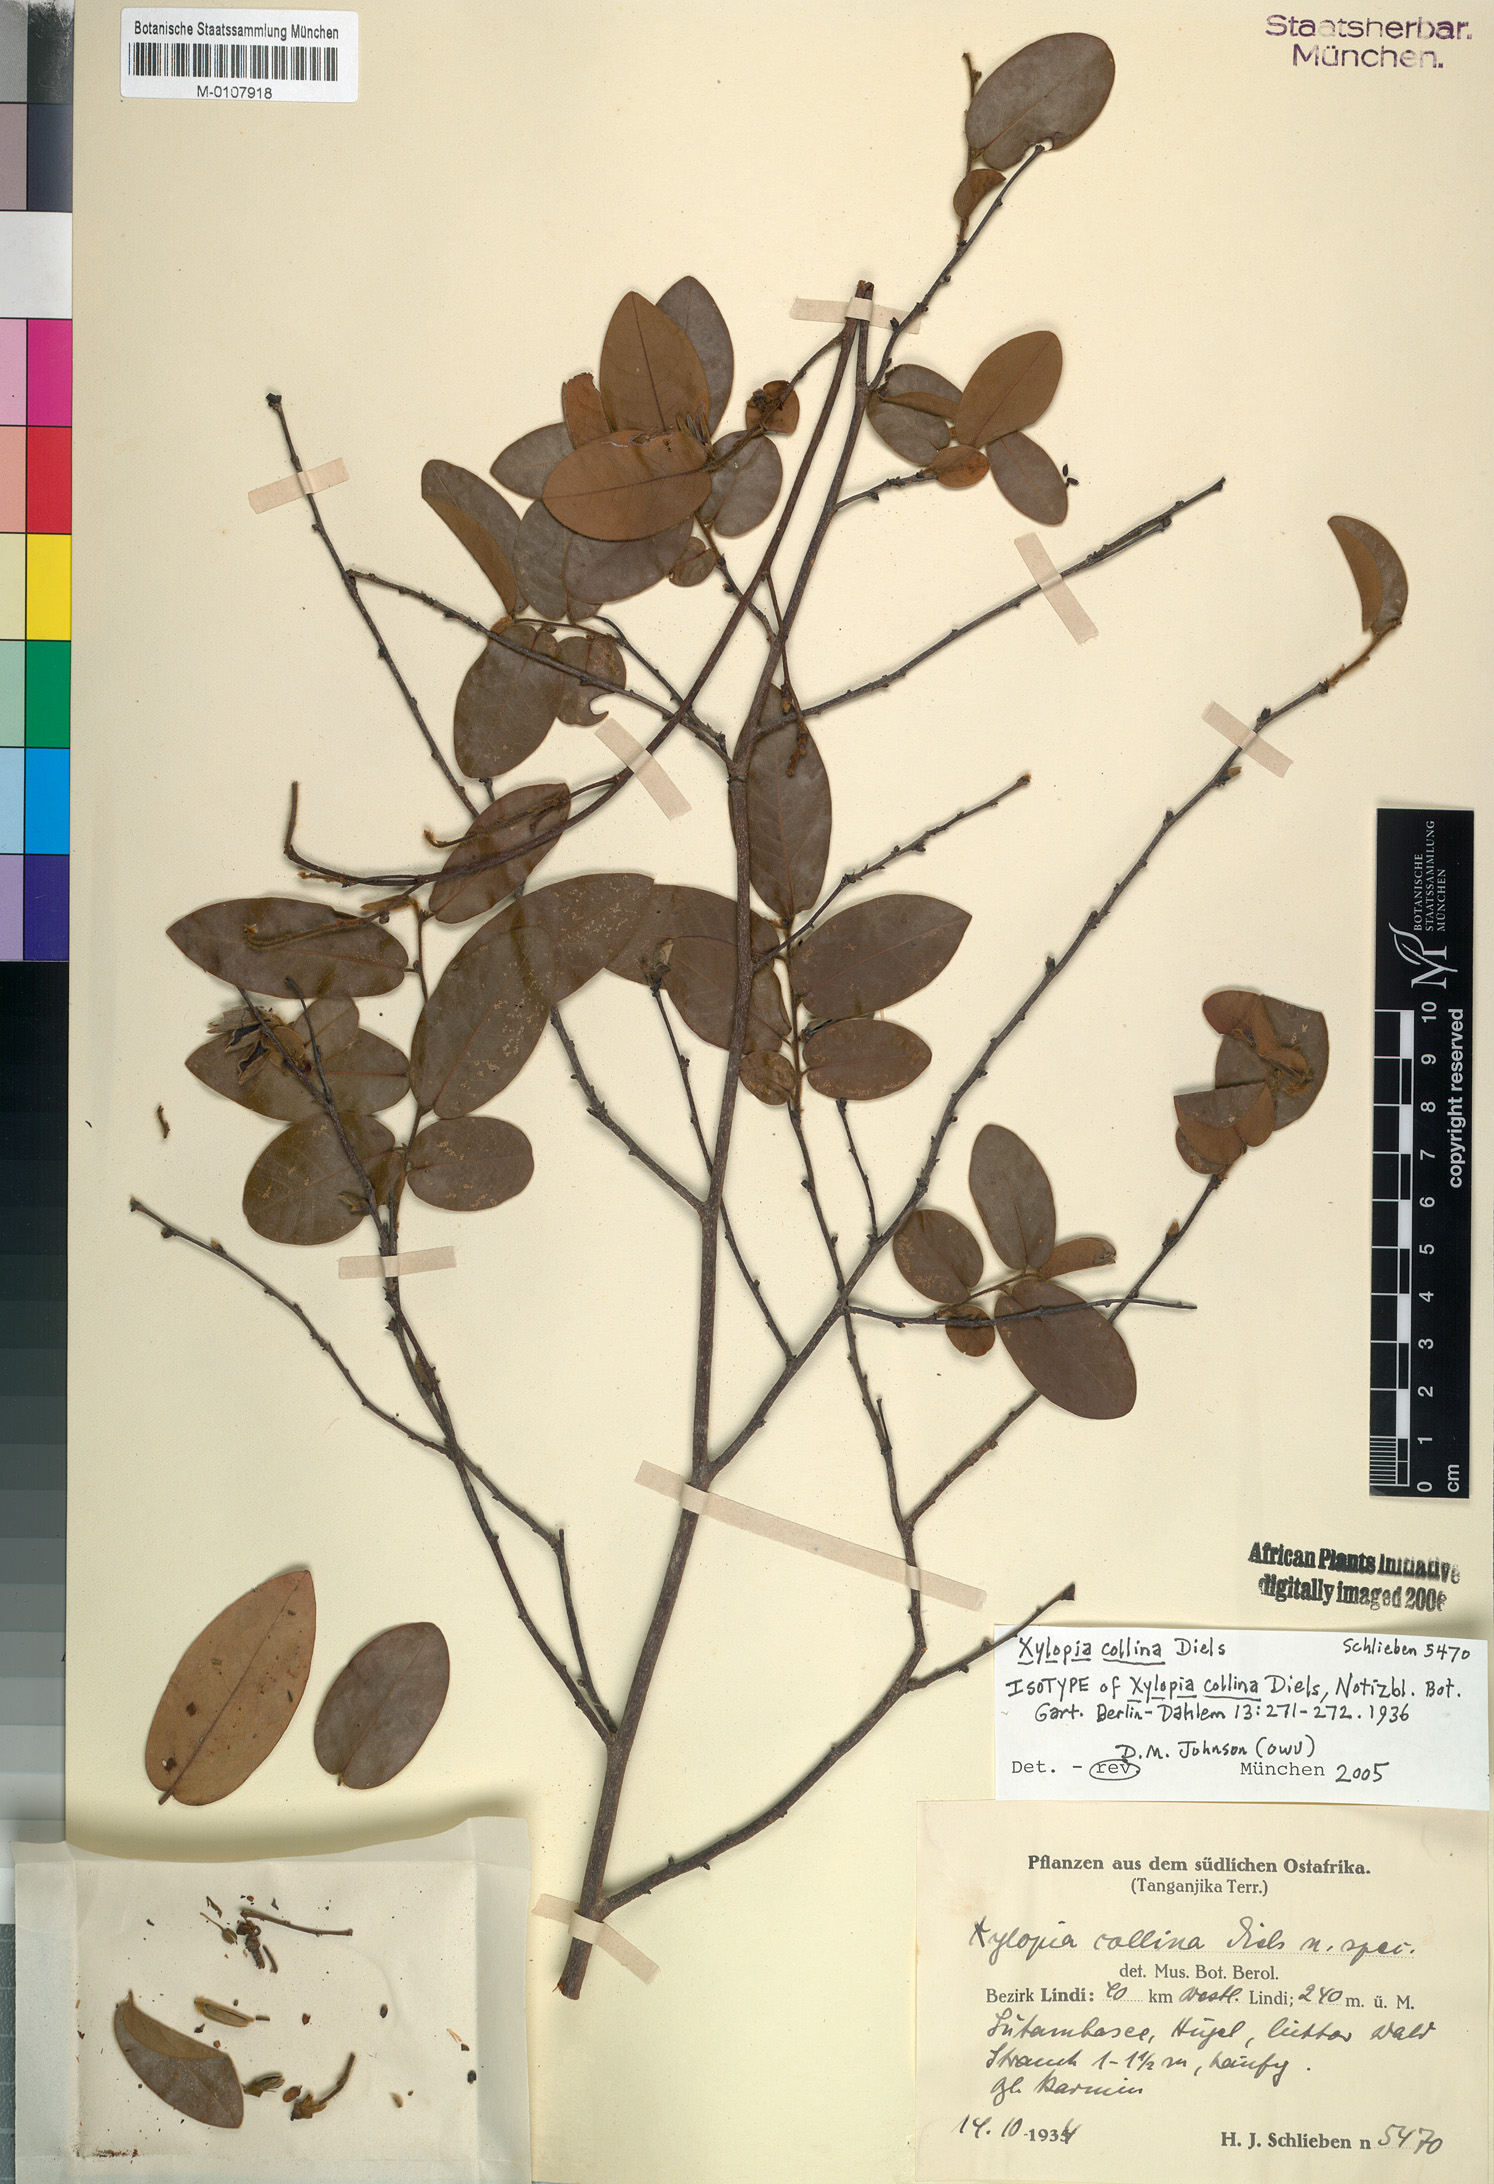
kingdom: Plantae
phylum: Tracheophyta
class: Magnoliopsida
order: Magnoliales
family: Annonaceae
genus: Xylopia
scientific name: Xylopia collina
